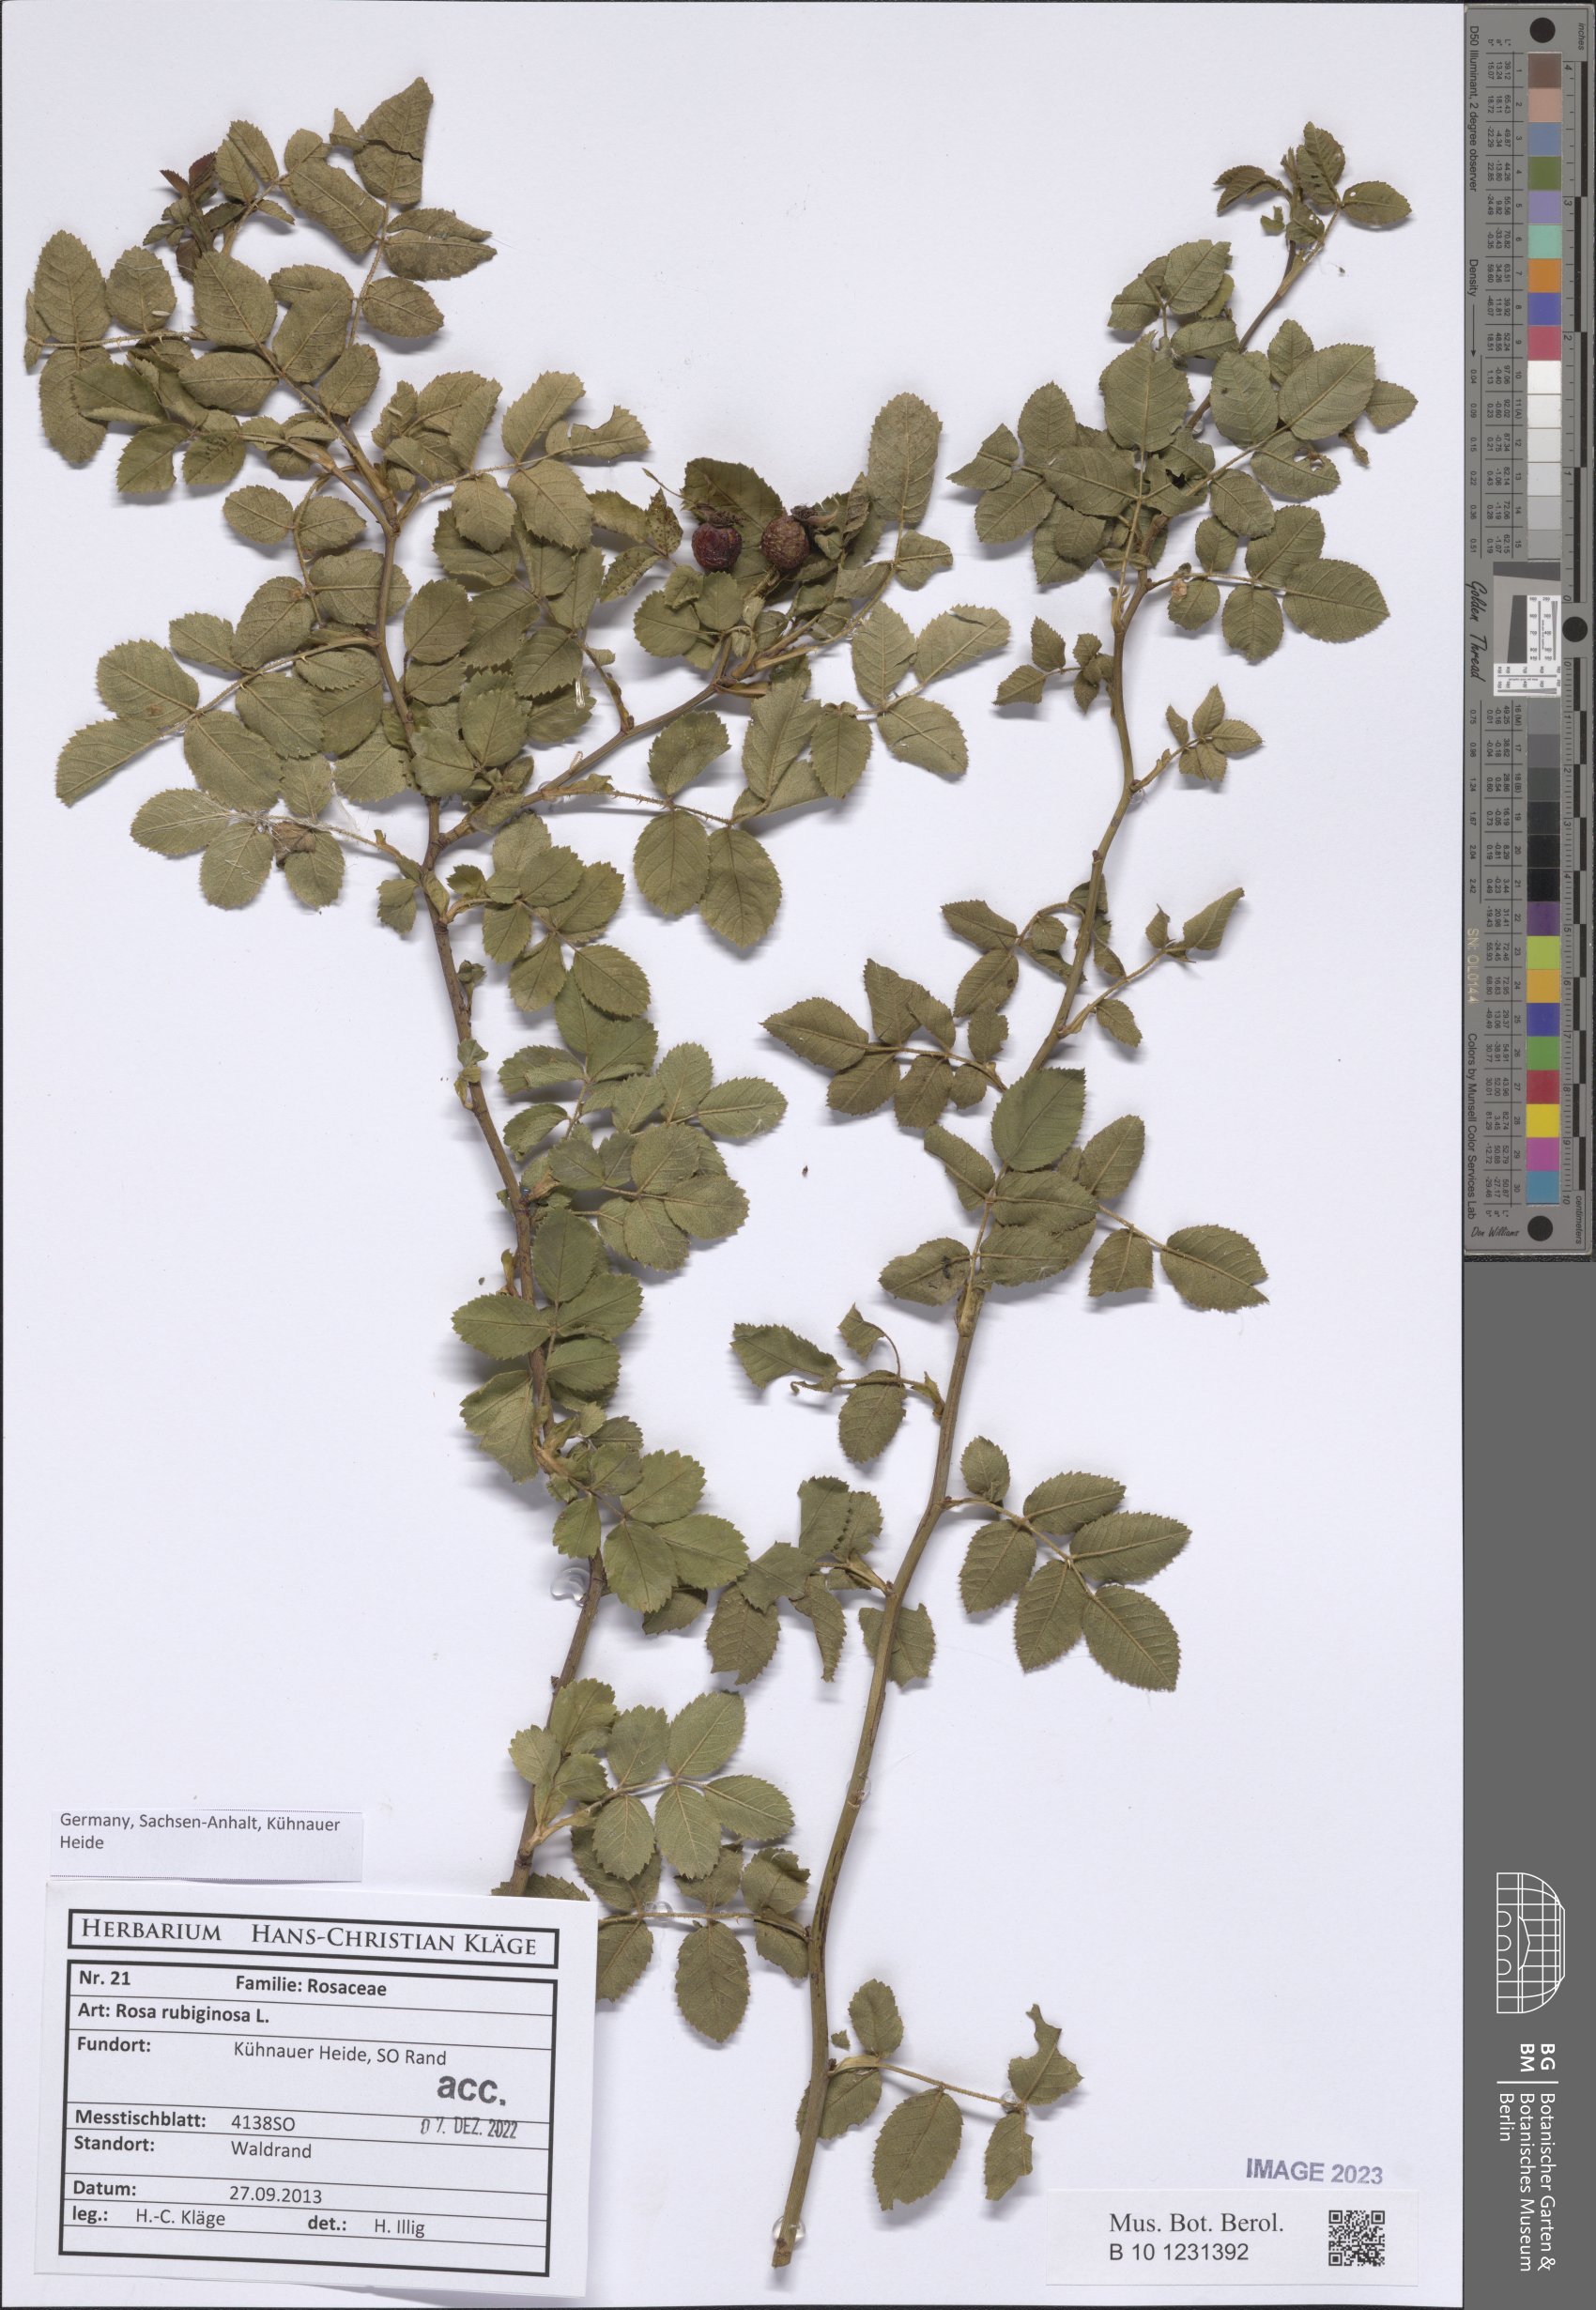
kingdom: Plantae
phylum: Tracheophyta
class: Magnoliopsida
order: Rosales
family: Rosaceae
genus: Rosa
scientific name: Rosa rubiginosa
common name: Sweet-briar
